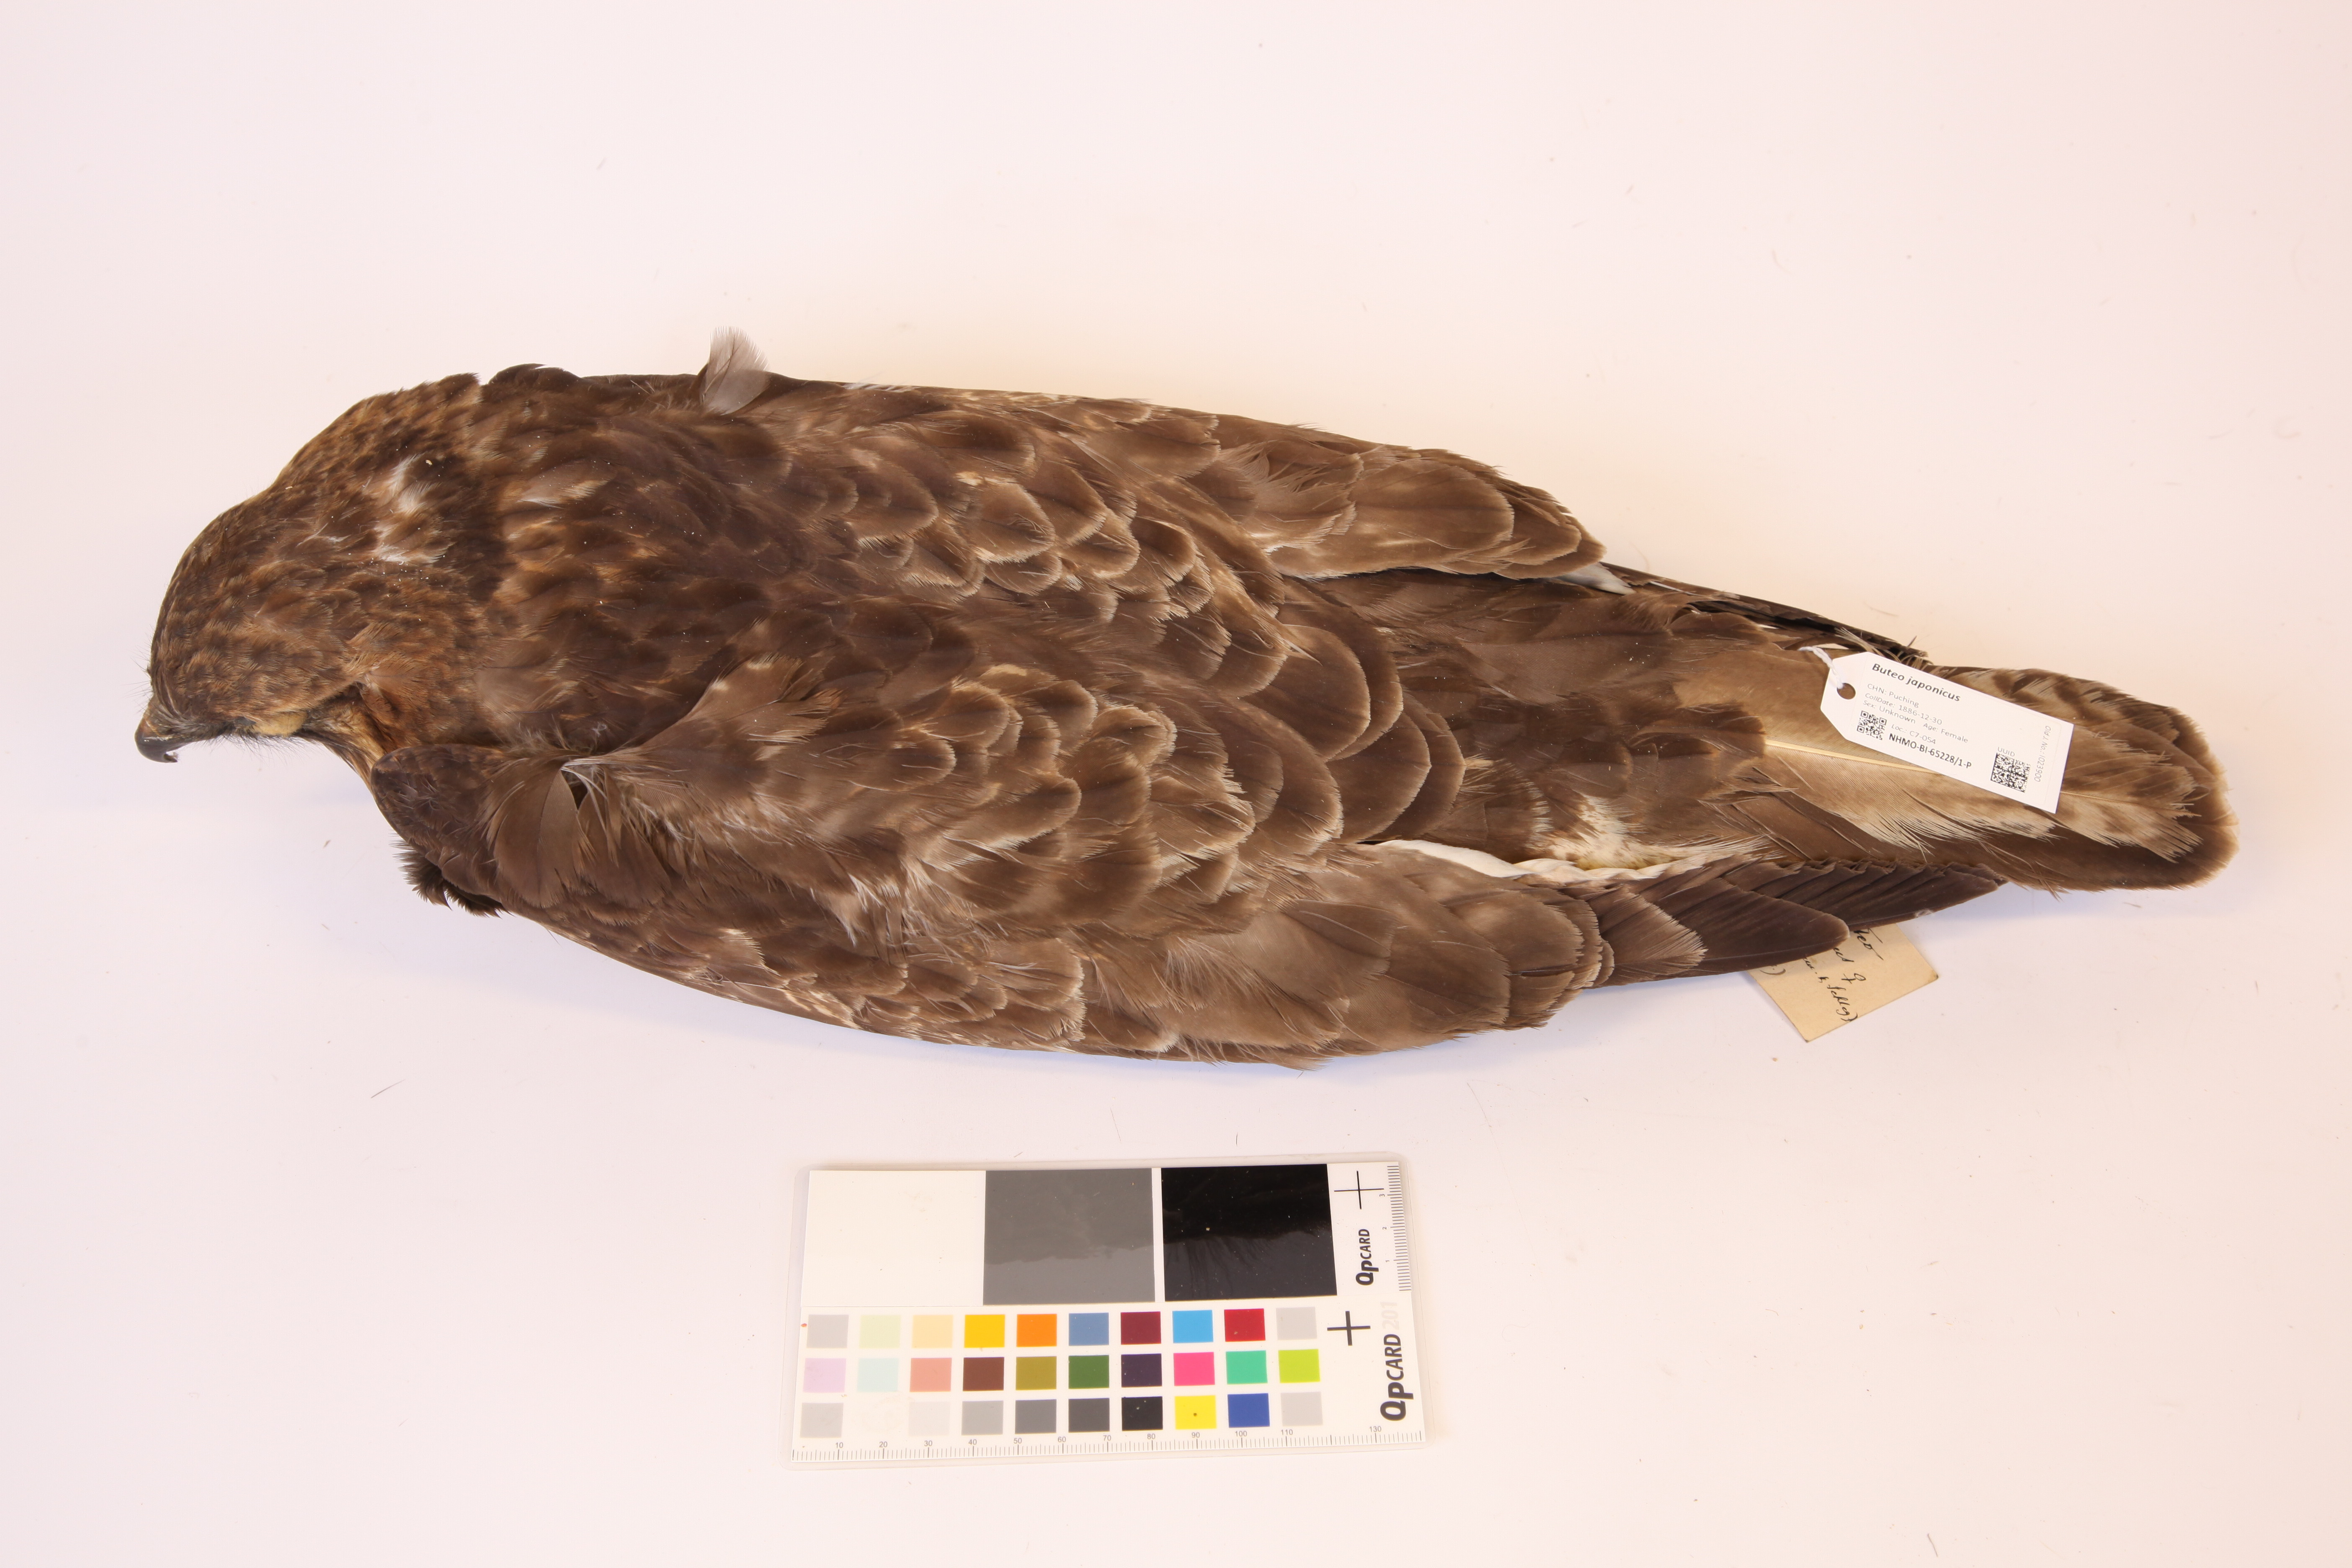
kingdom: Animalia
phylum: Chordata
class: Aves
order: Accipitriformes
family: Accipitridae
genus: Buteo
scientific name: Buteo japonicus
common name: Eastern buzzard
